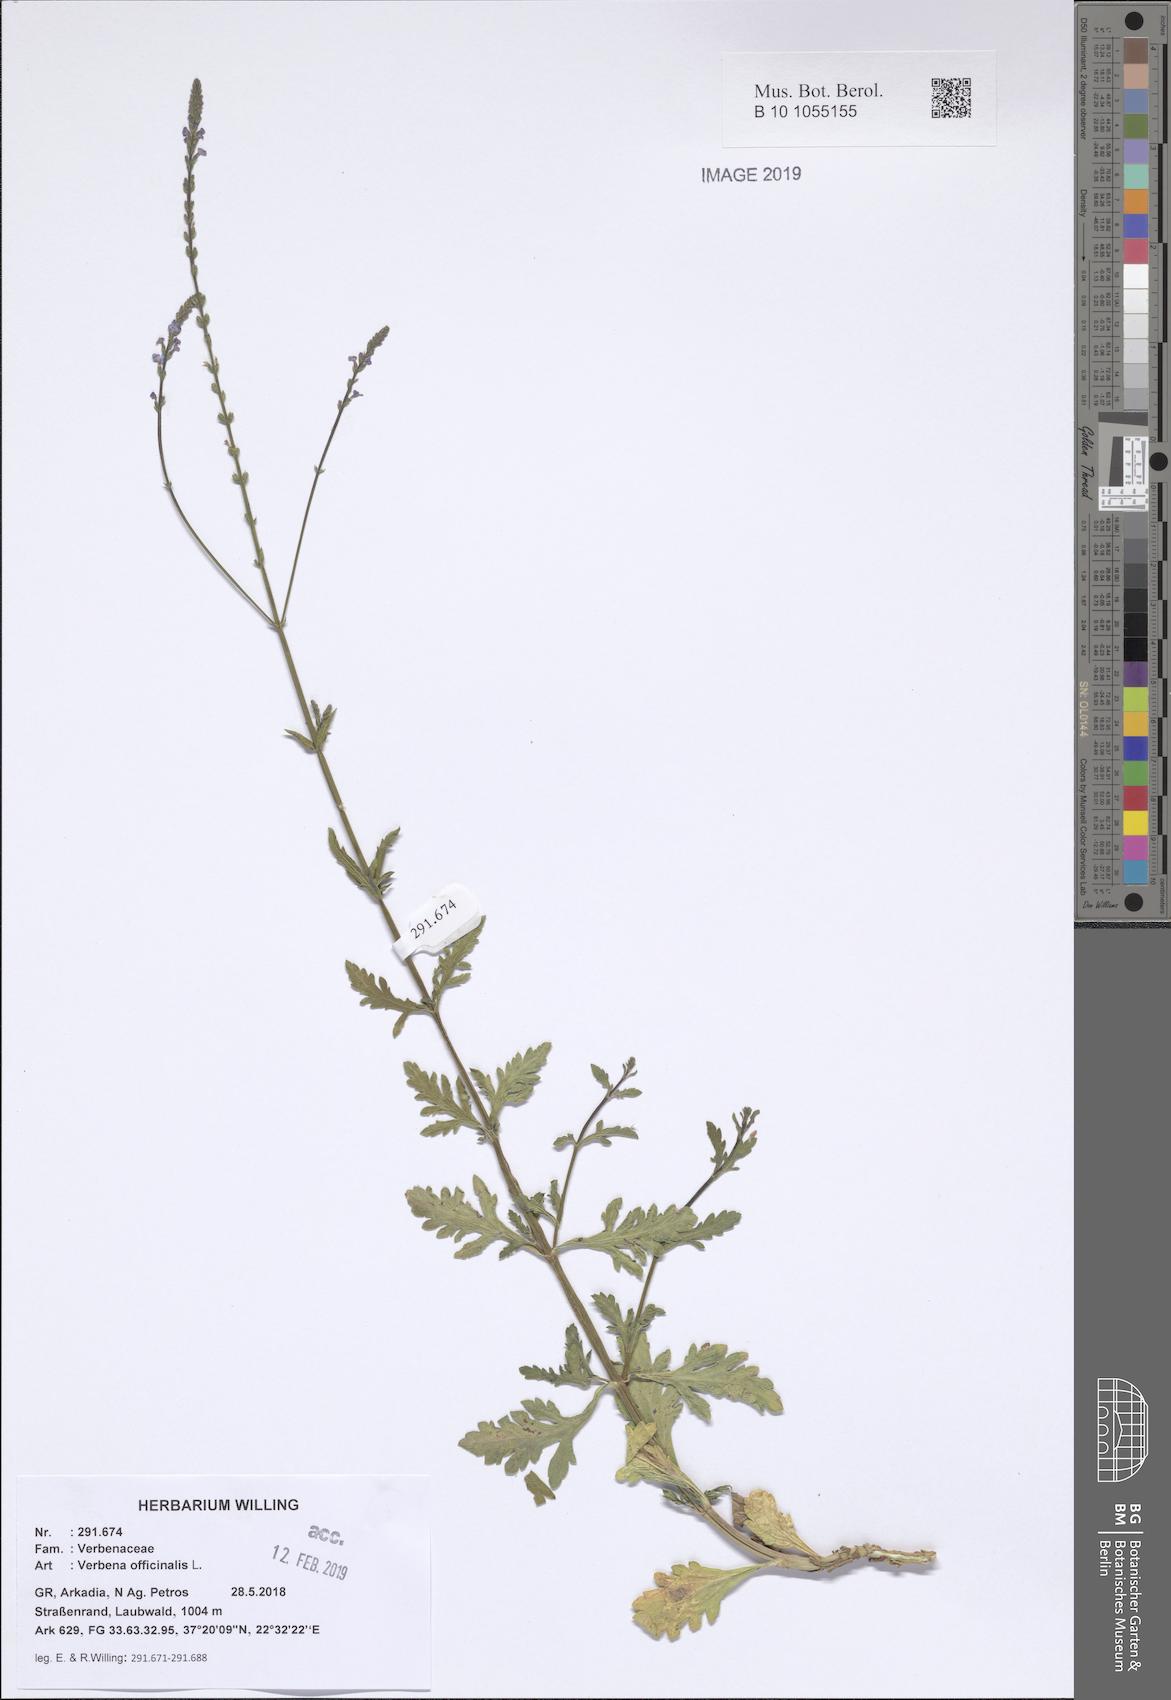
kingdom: Plantae
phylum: Tracheophyta
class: Magnoliopsida
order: Lamiales
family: Verbenaceae
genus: Verbena
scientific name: Verbena officinalis
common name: Vervain
